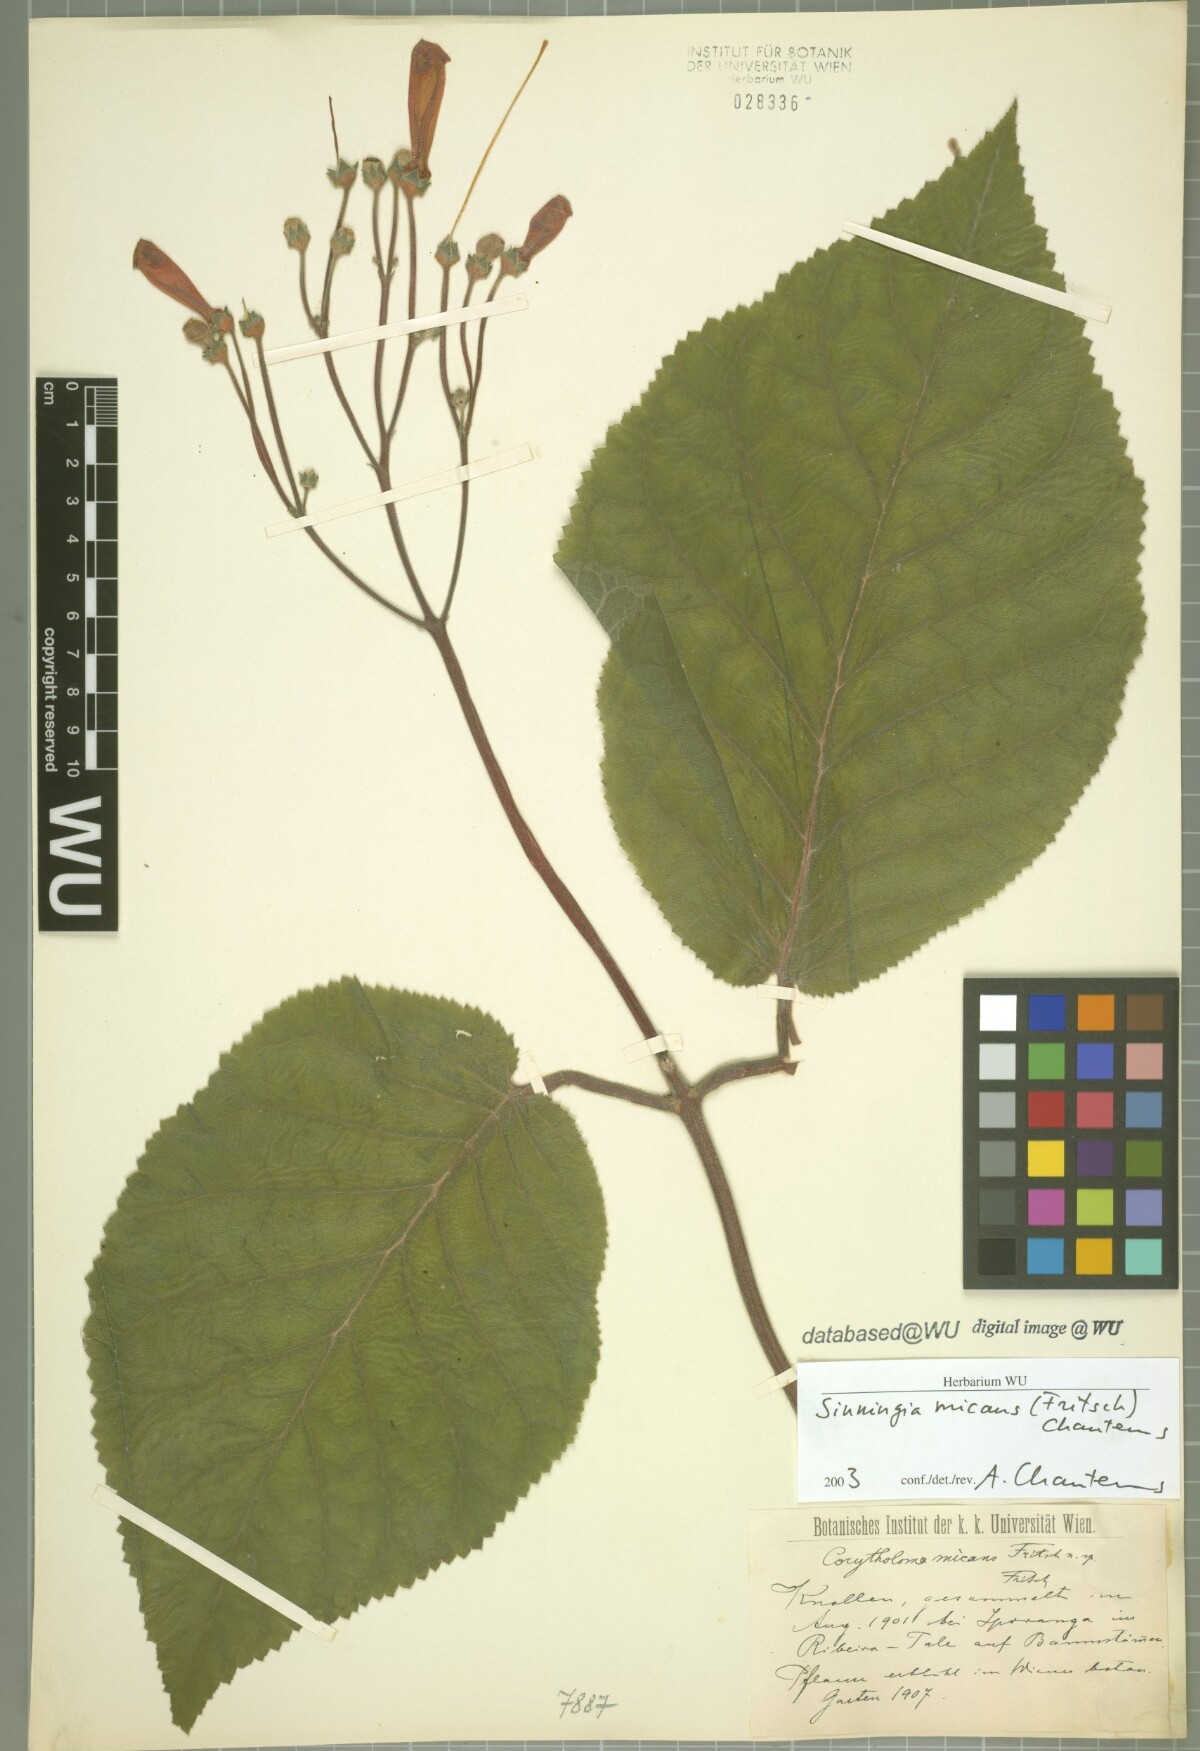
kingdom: Plantae
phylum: Tracheophyta
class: Magnoliopsida
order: Lamiales
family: Gesneriaceae
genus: Sinningia
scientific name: Sinningia micans
